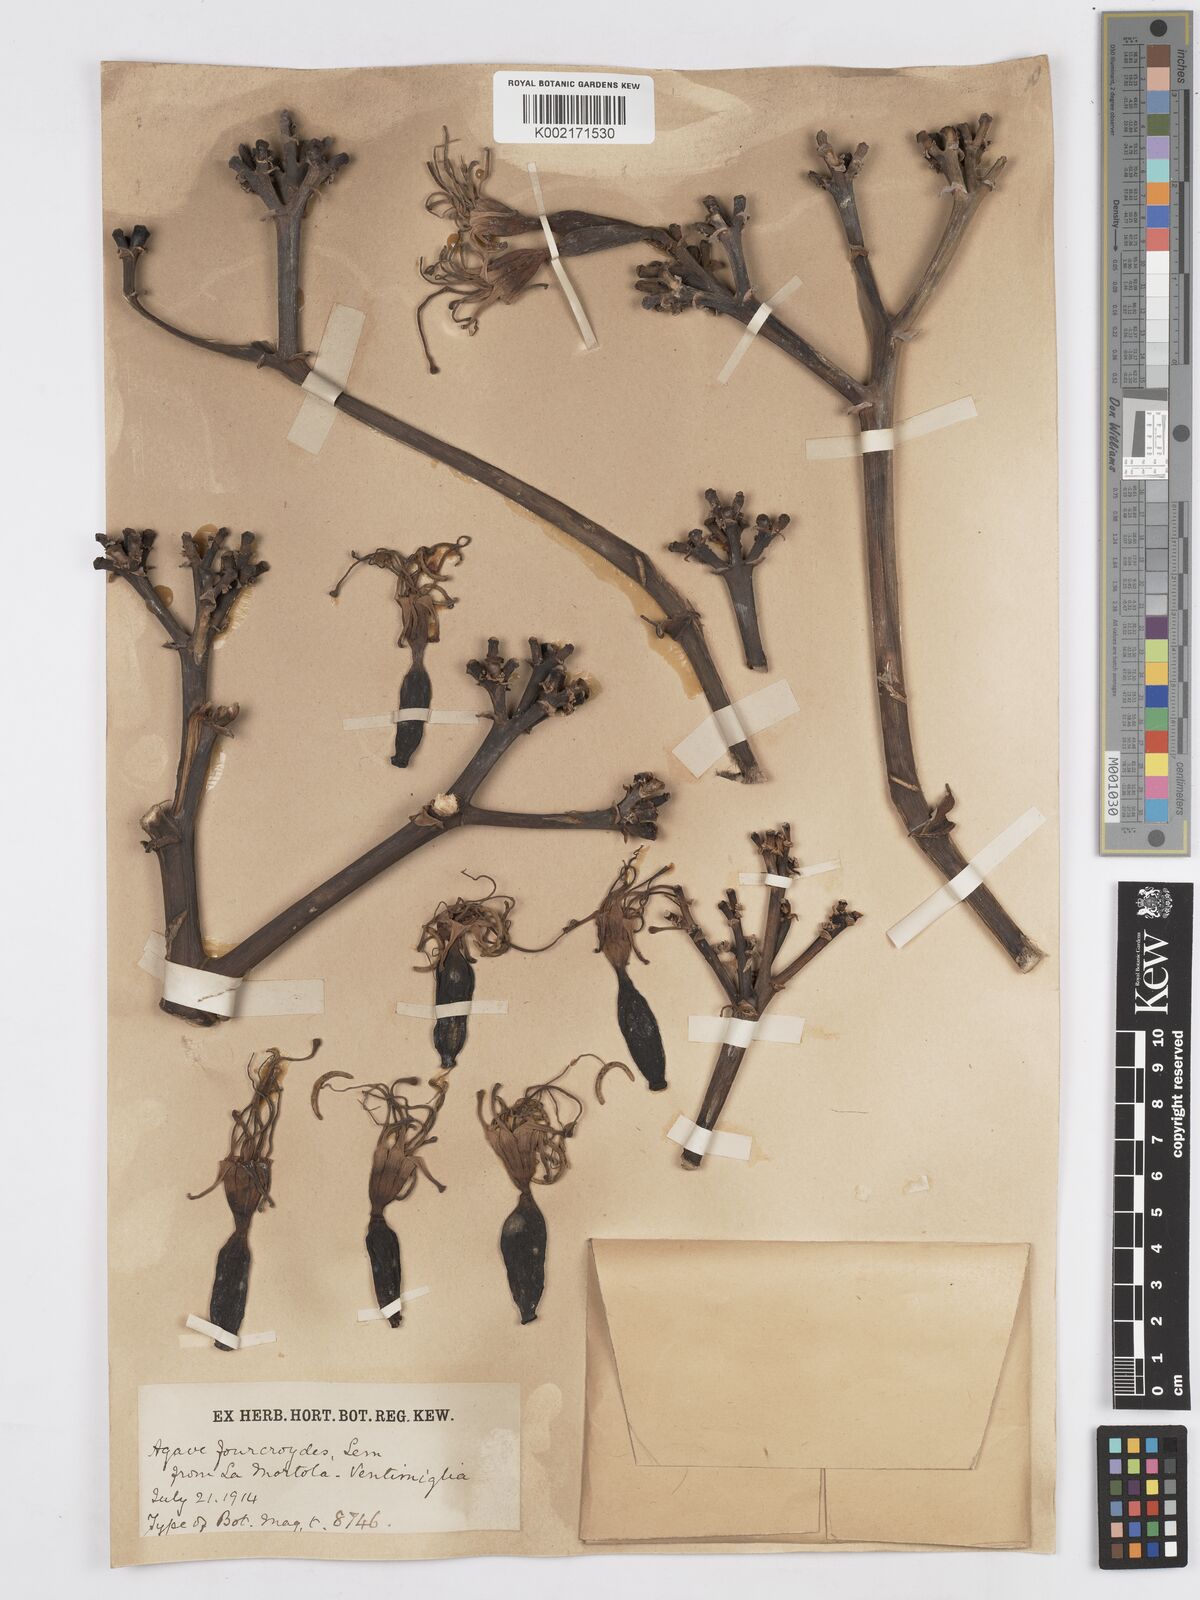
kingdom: Plantae
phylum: Tracheophyta
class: Liliopsida
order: Asparagales
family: Asparagaceae
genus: Agave
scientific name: Agave fourcroydes
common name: Henequen
